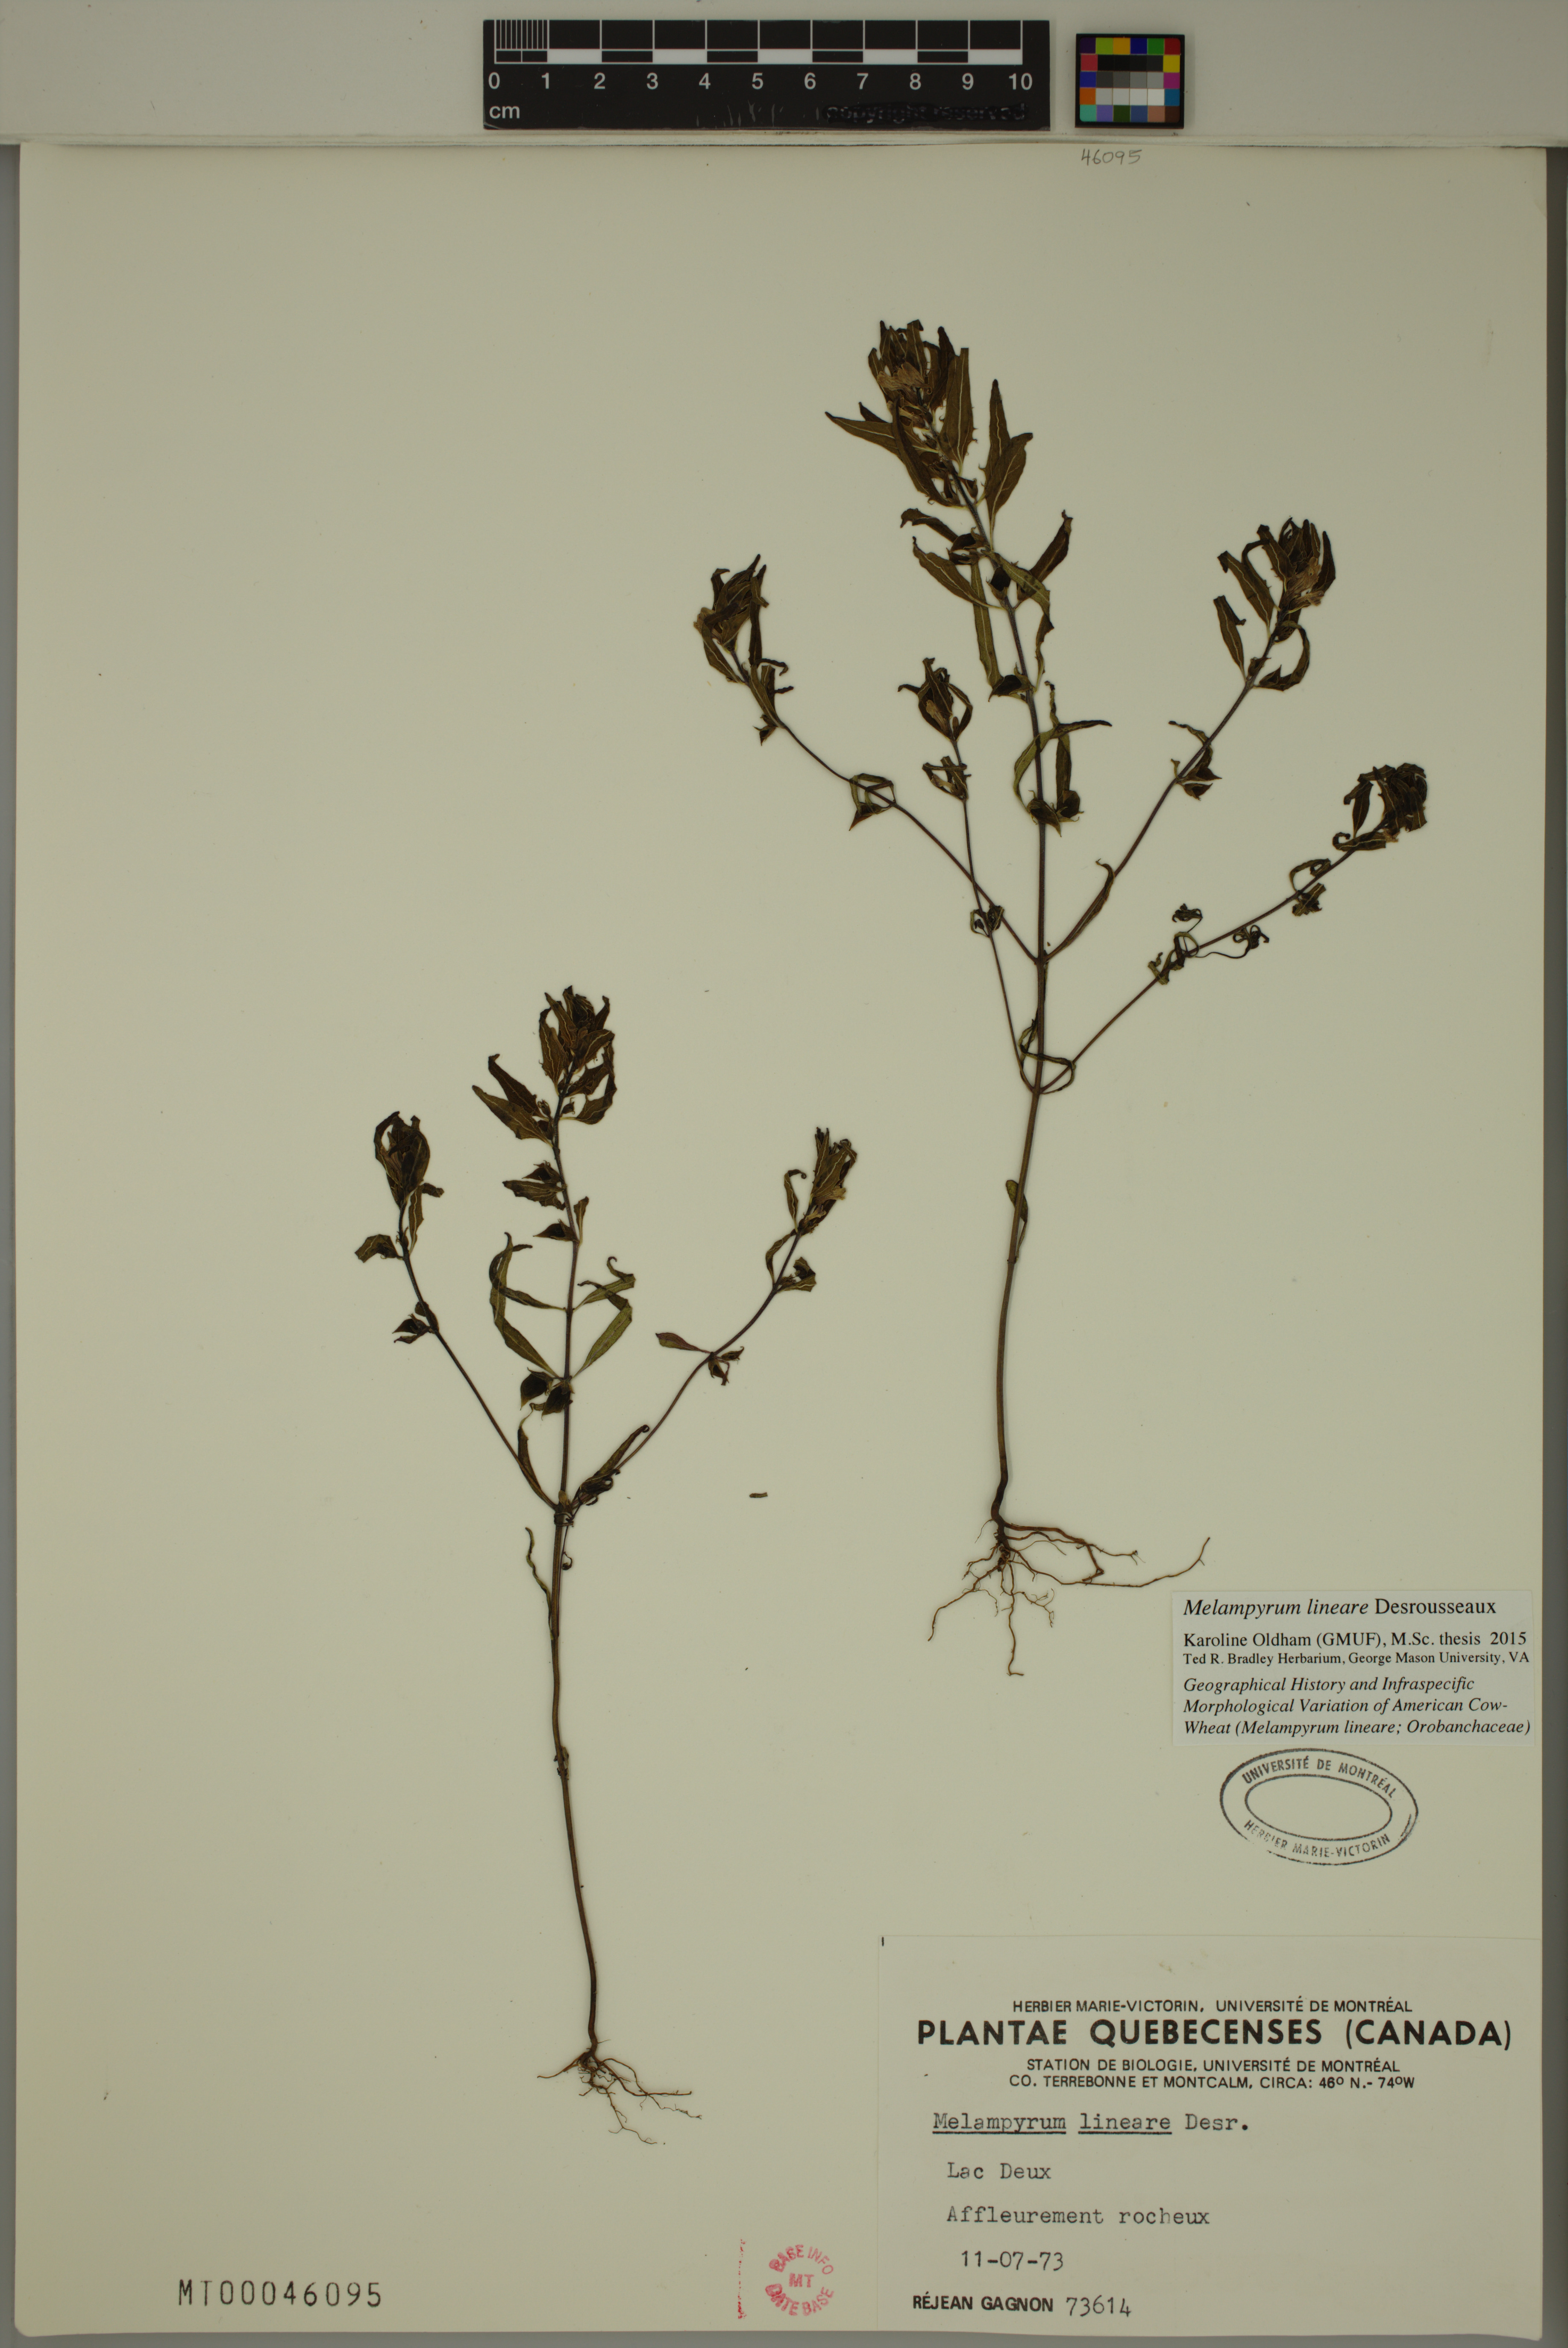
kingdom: Plantae
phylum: Tracheophyta
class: Magnoliopsida
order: Lamiales
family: Orobanchaceae
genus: Melampyrum
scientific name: Melampyrum lineare
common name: American cow-wheat
